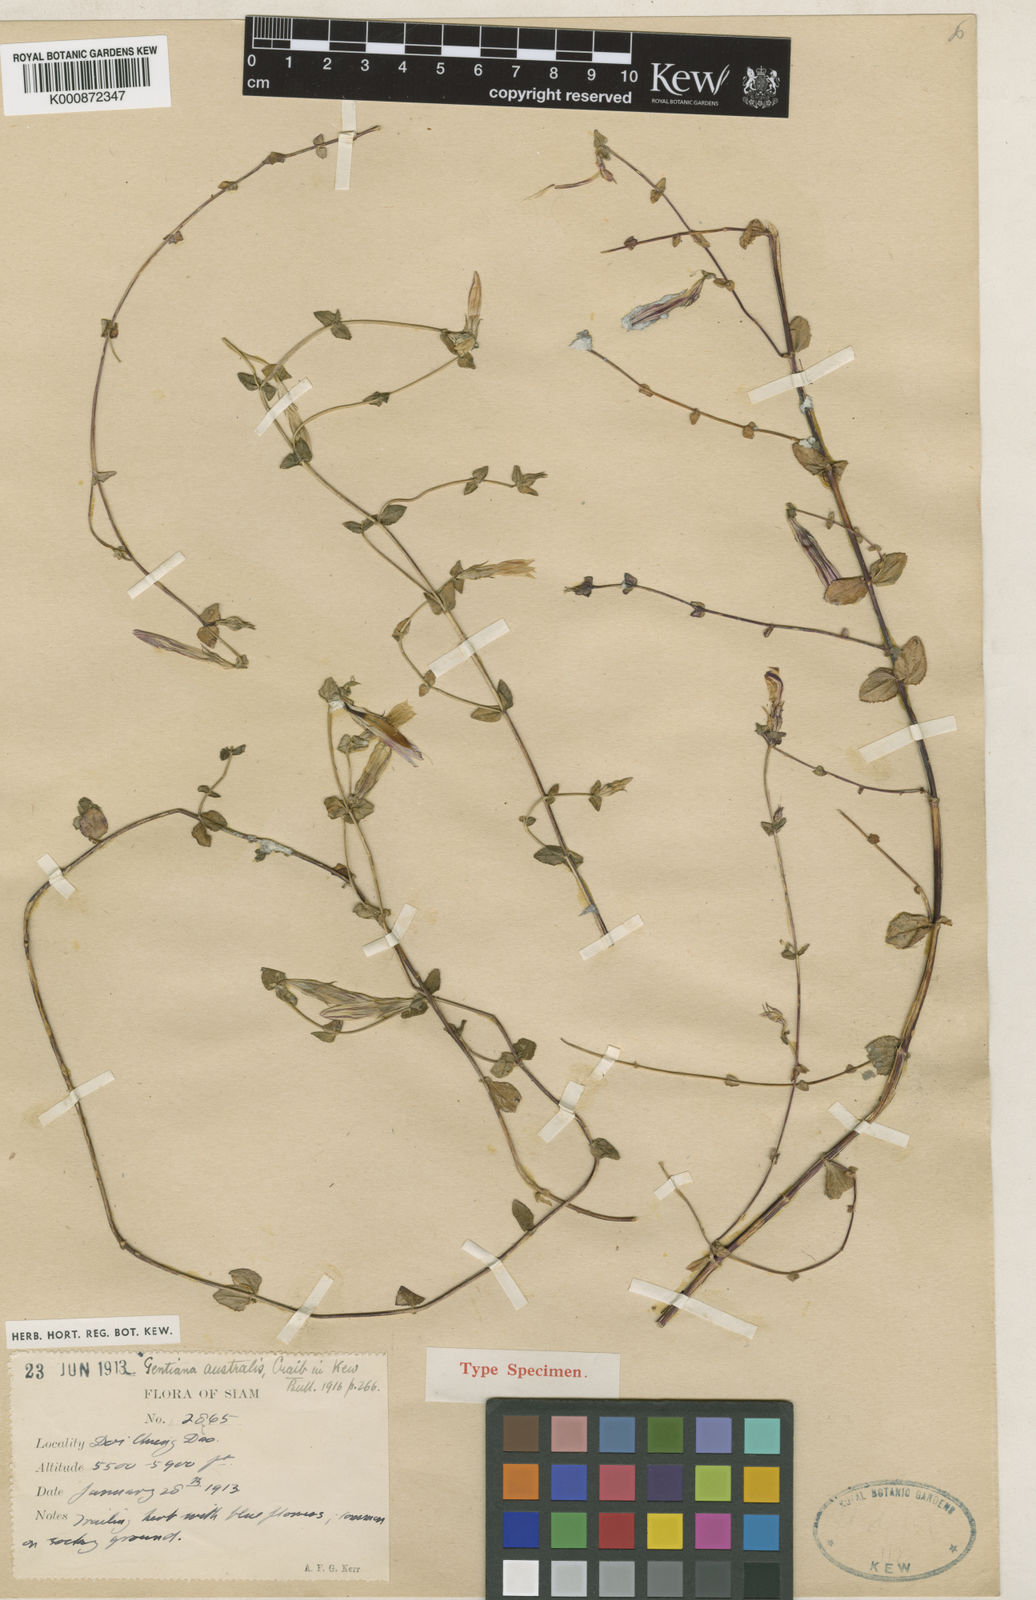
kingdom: Plantae
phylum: Tracheophyta
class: Magnoliopsida
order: Gentianales
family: Gentianaceae
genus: Metagentiana
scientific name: Metagentiana australis
